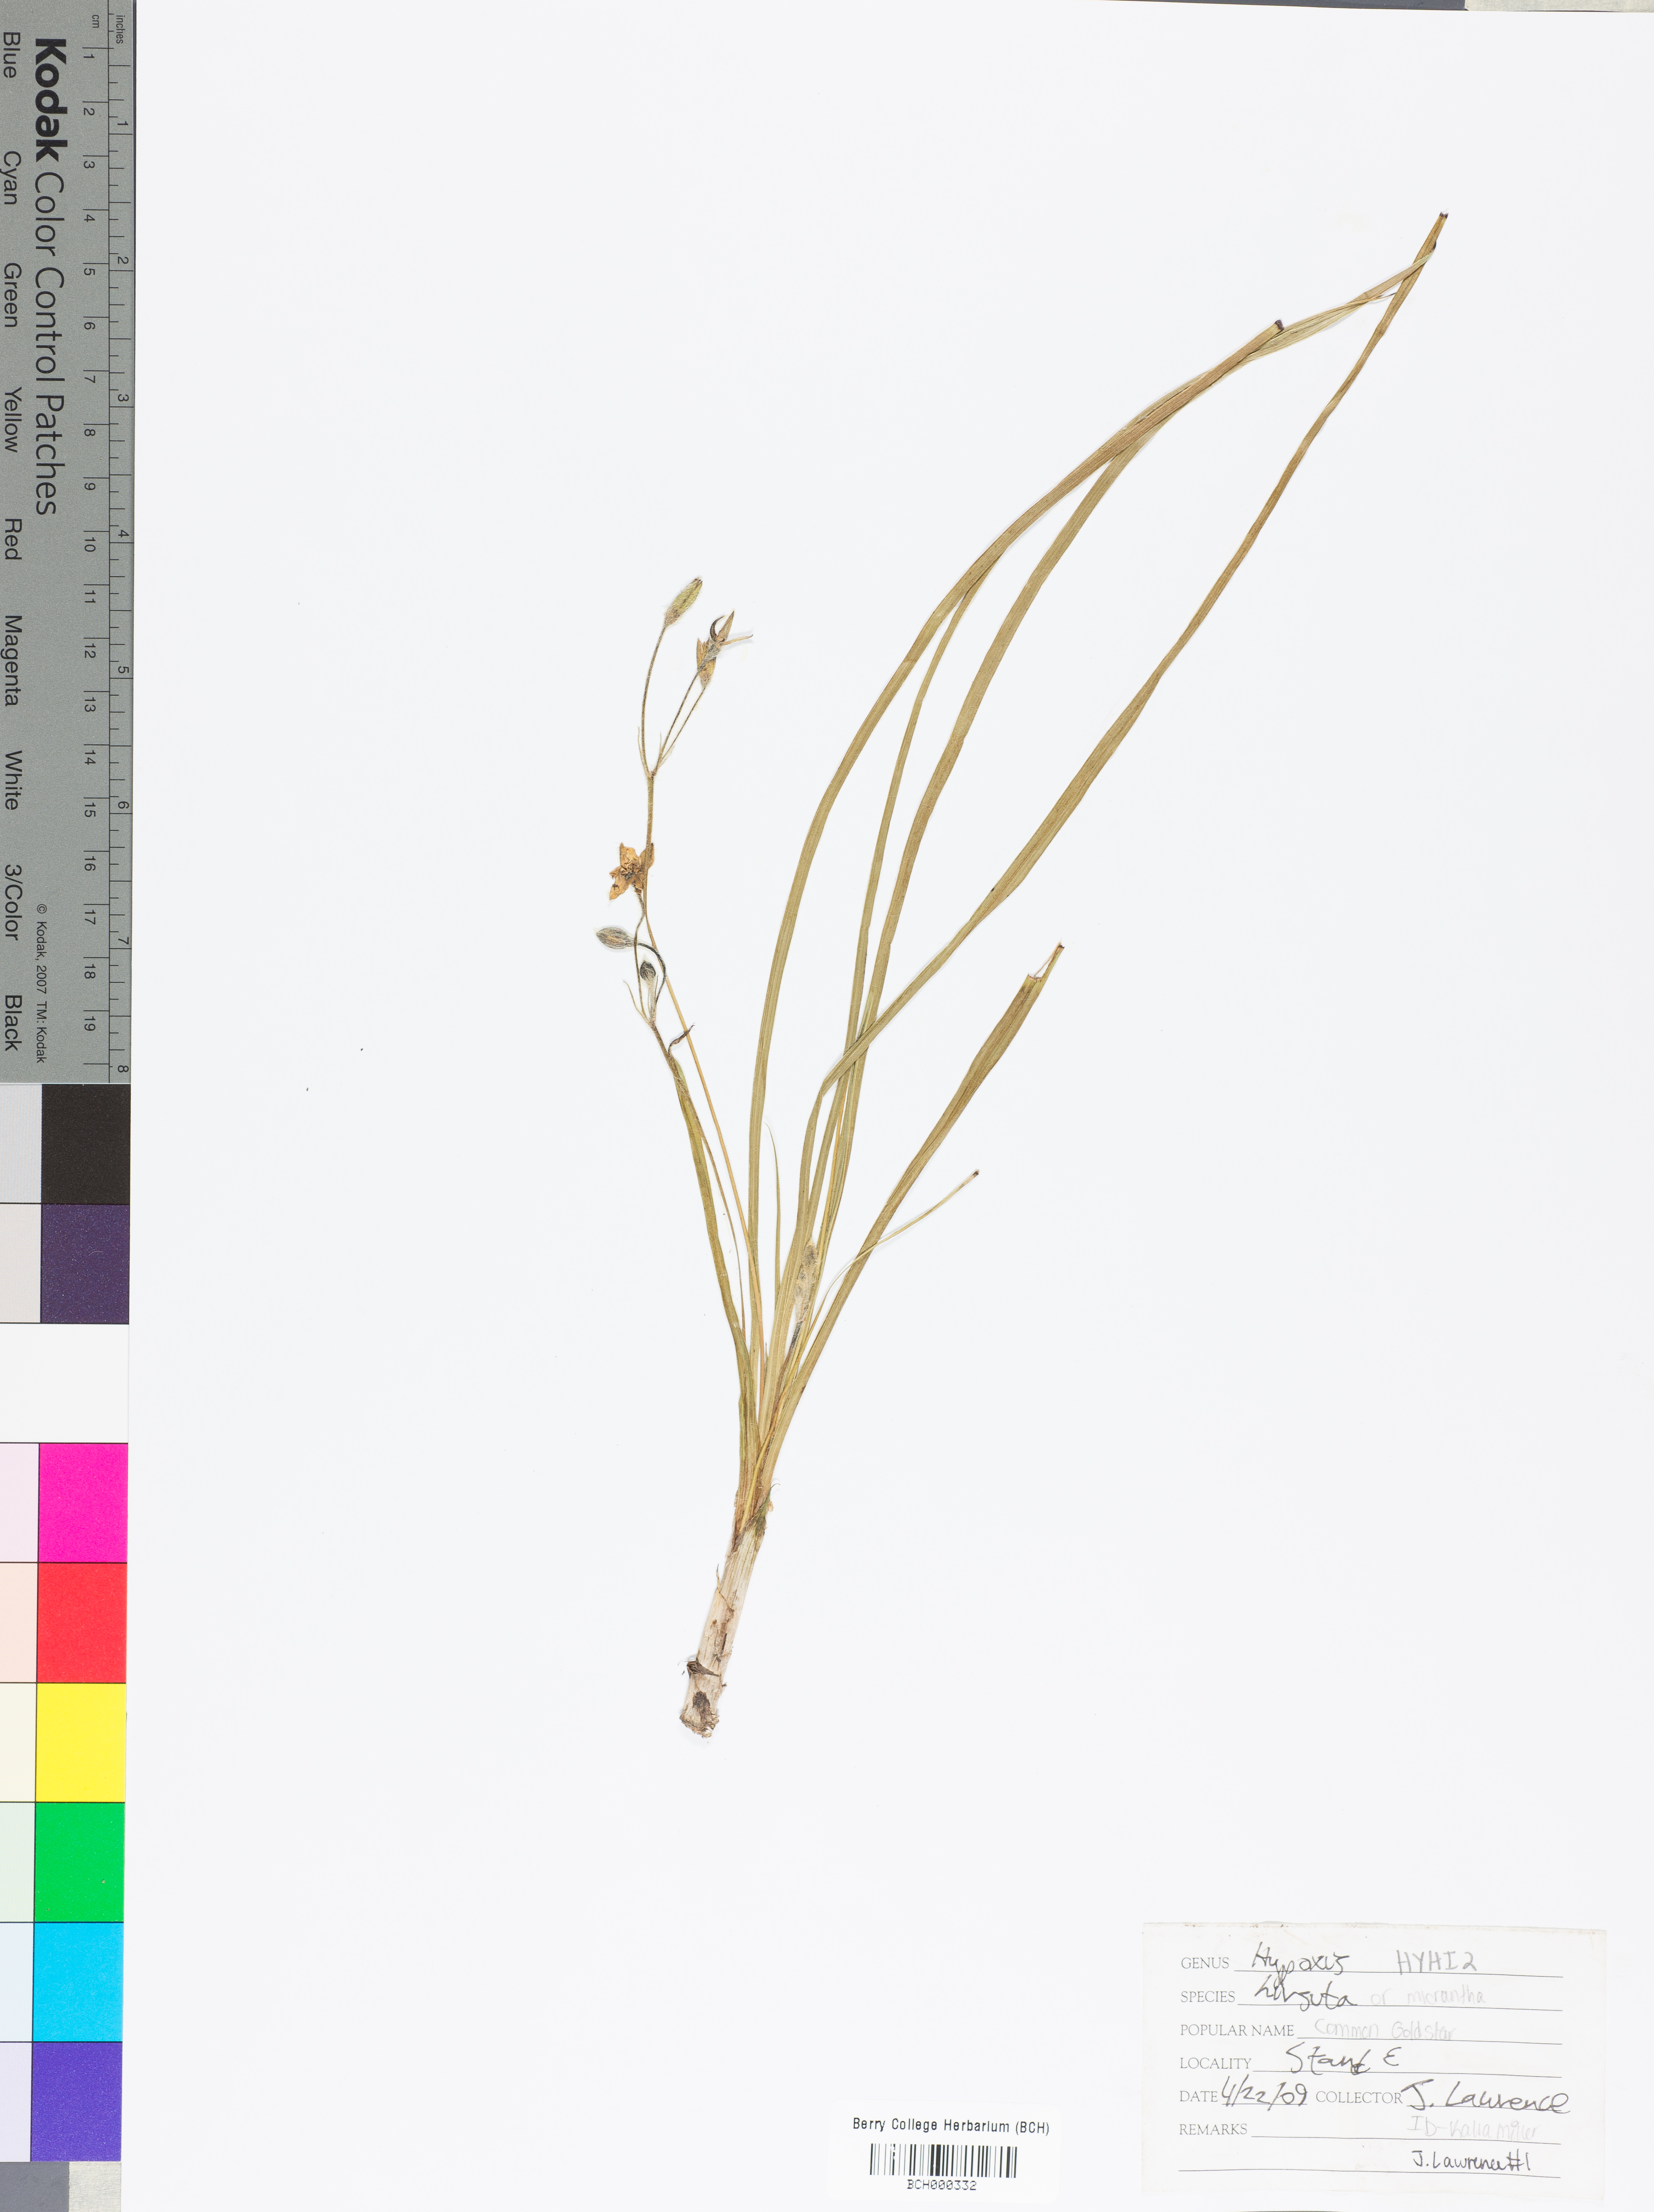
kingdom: Plantae
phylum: Tracheophyta
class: Liliopsida
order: Asparagales
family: Hypoxidaceae
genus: Hypoxis
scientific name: Hypoxis hirsuta
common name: Common goldstar
